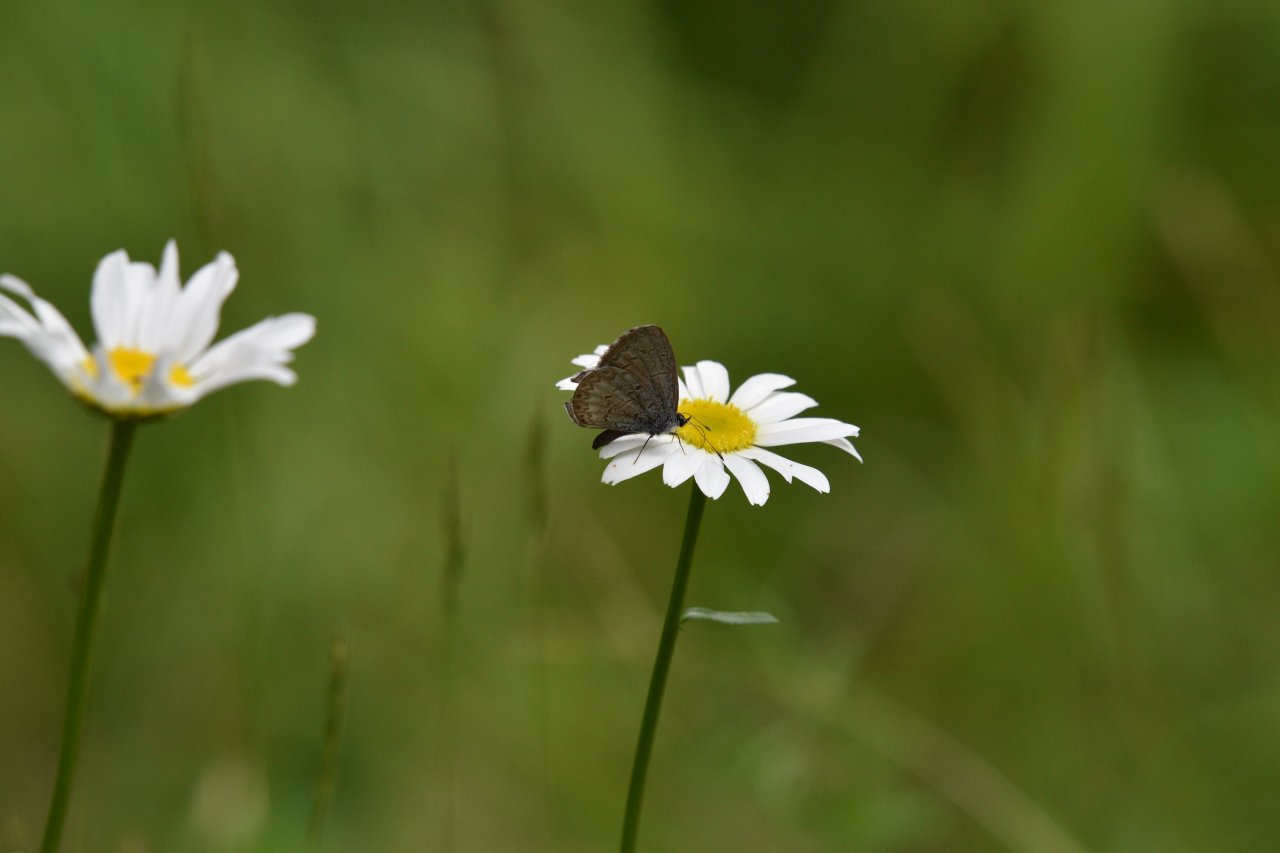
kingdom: Animalia
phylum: Arthropoda
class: Insecta
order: Lepidoptera
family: Lycaenidae
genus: Celastrina
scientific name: Celastrina lucia
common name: Northern Spring Azure
